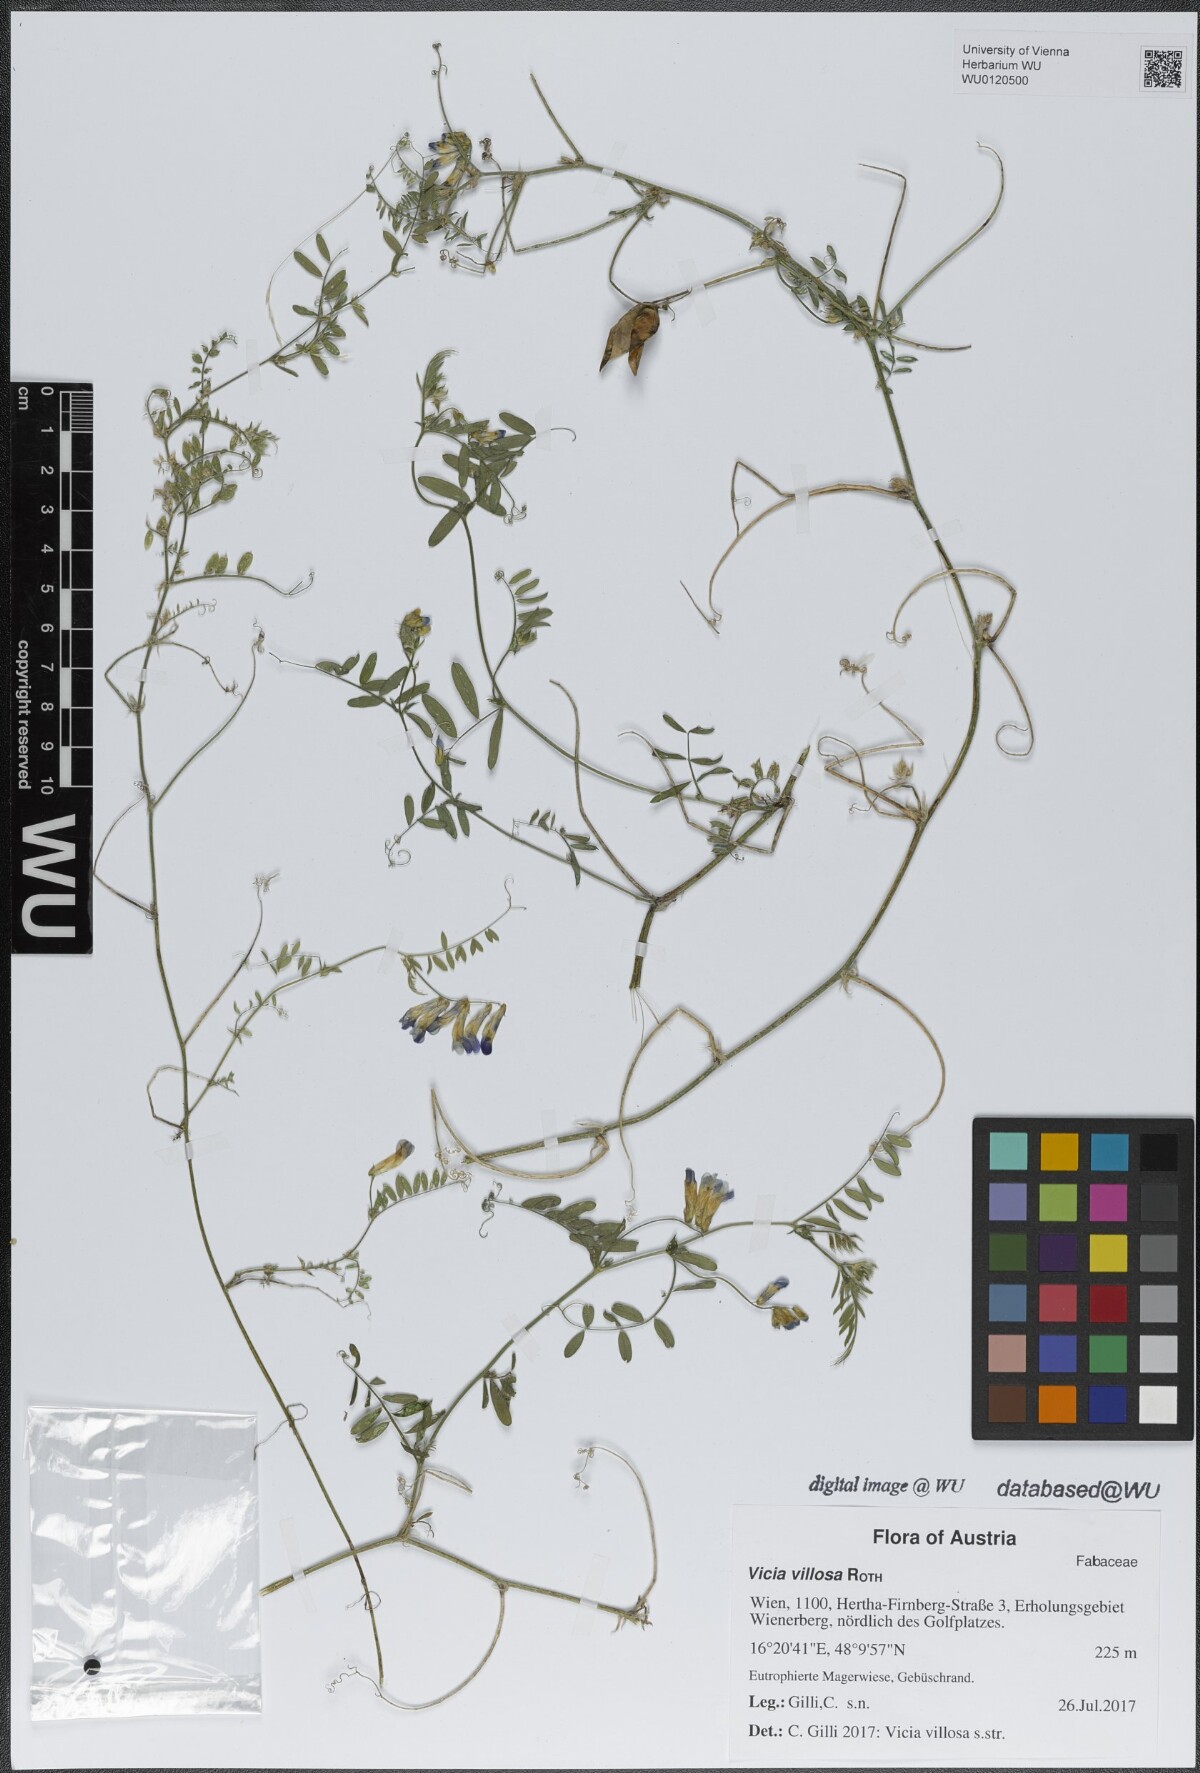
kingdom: Plantae
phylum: Tracheophyta
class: Magnoliopsida
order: Fabales
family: Fabaceae
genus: Vicia
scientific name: Vicia villosa
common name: Fodder vetch
